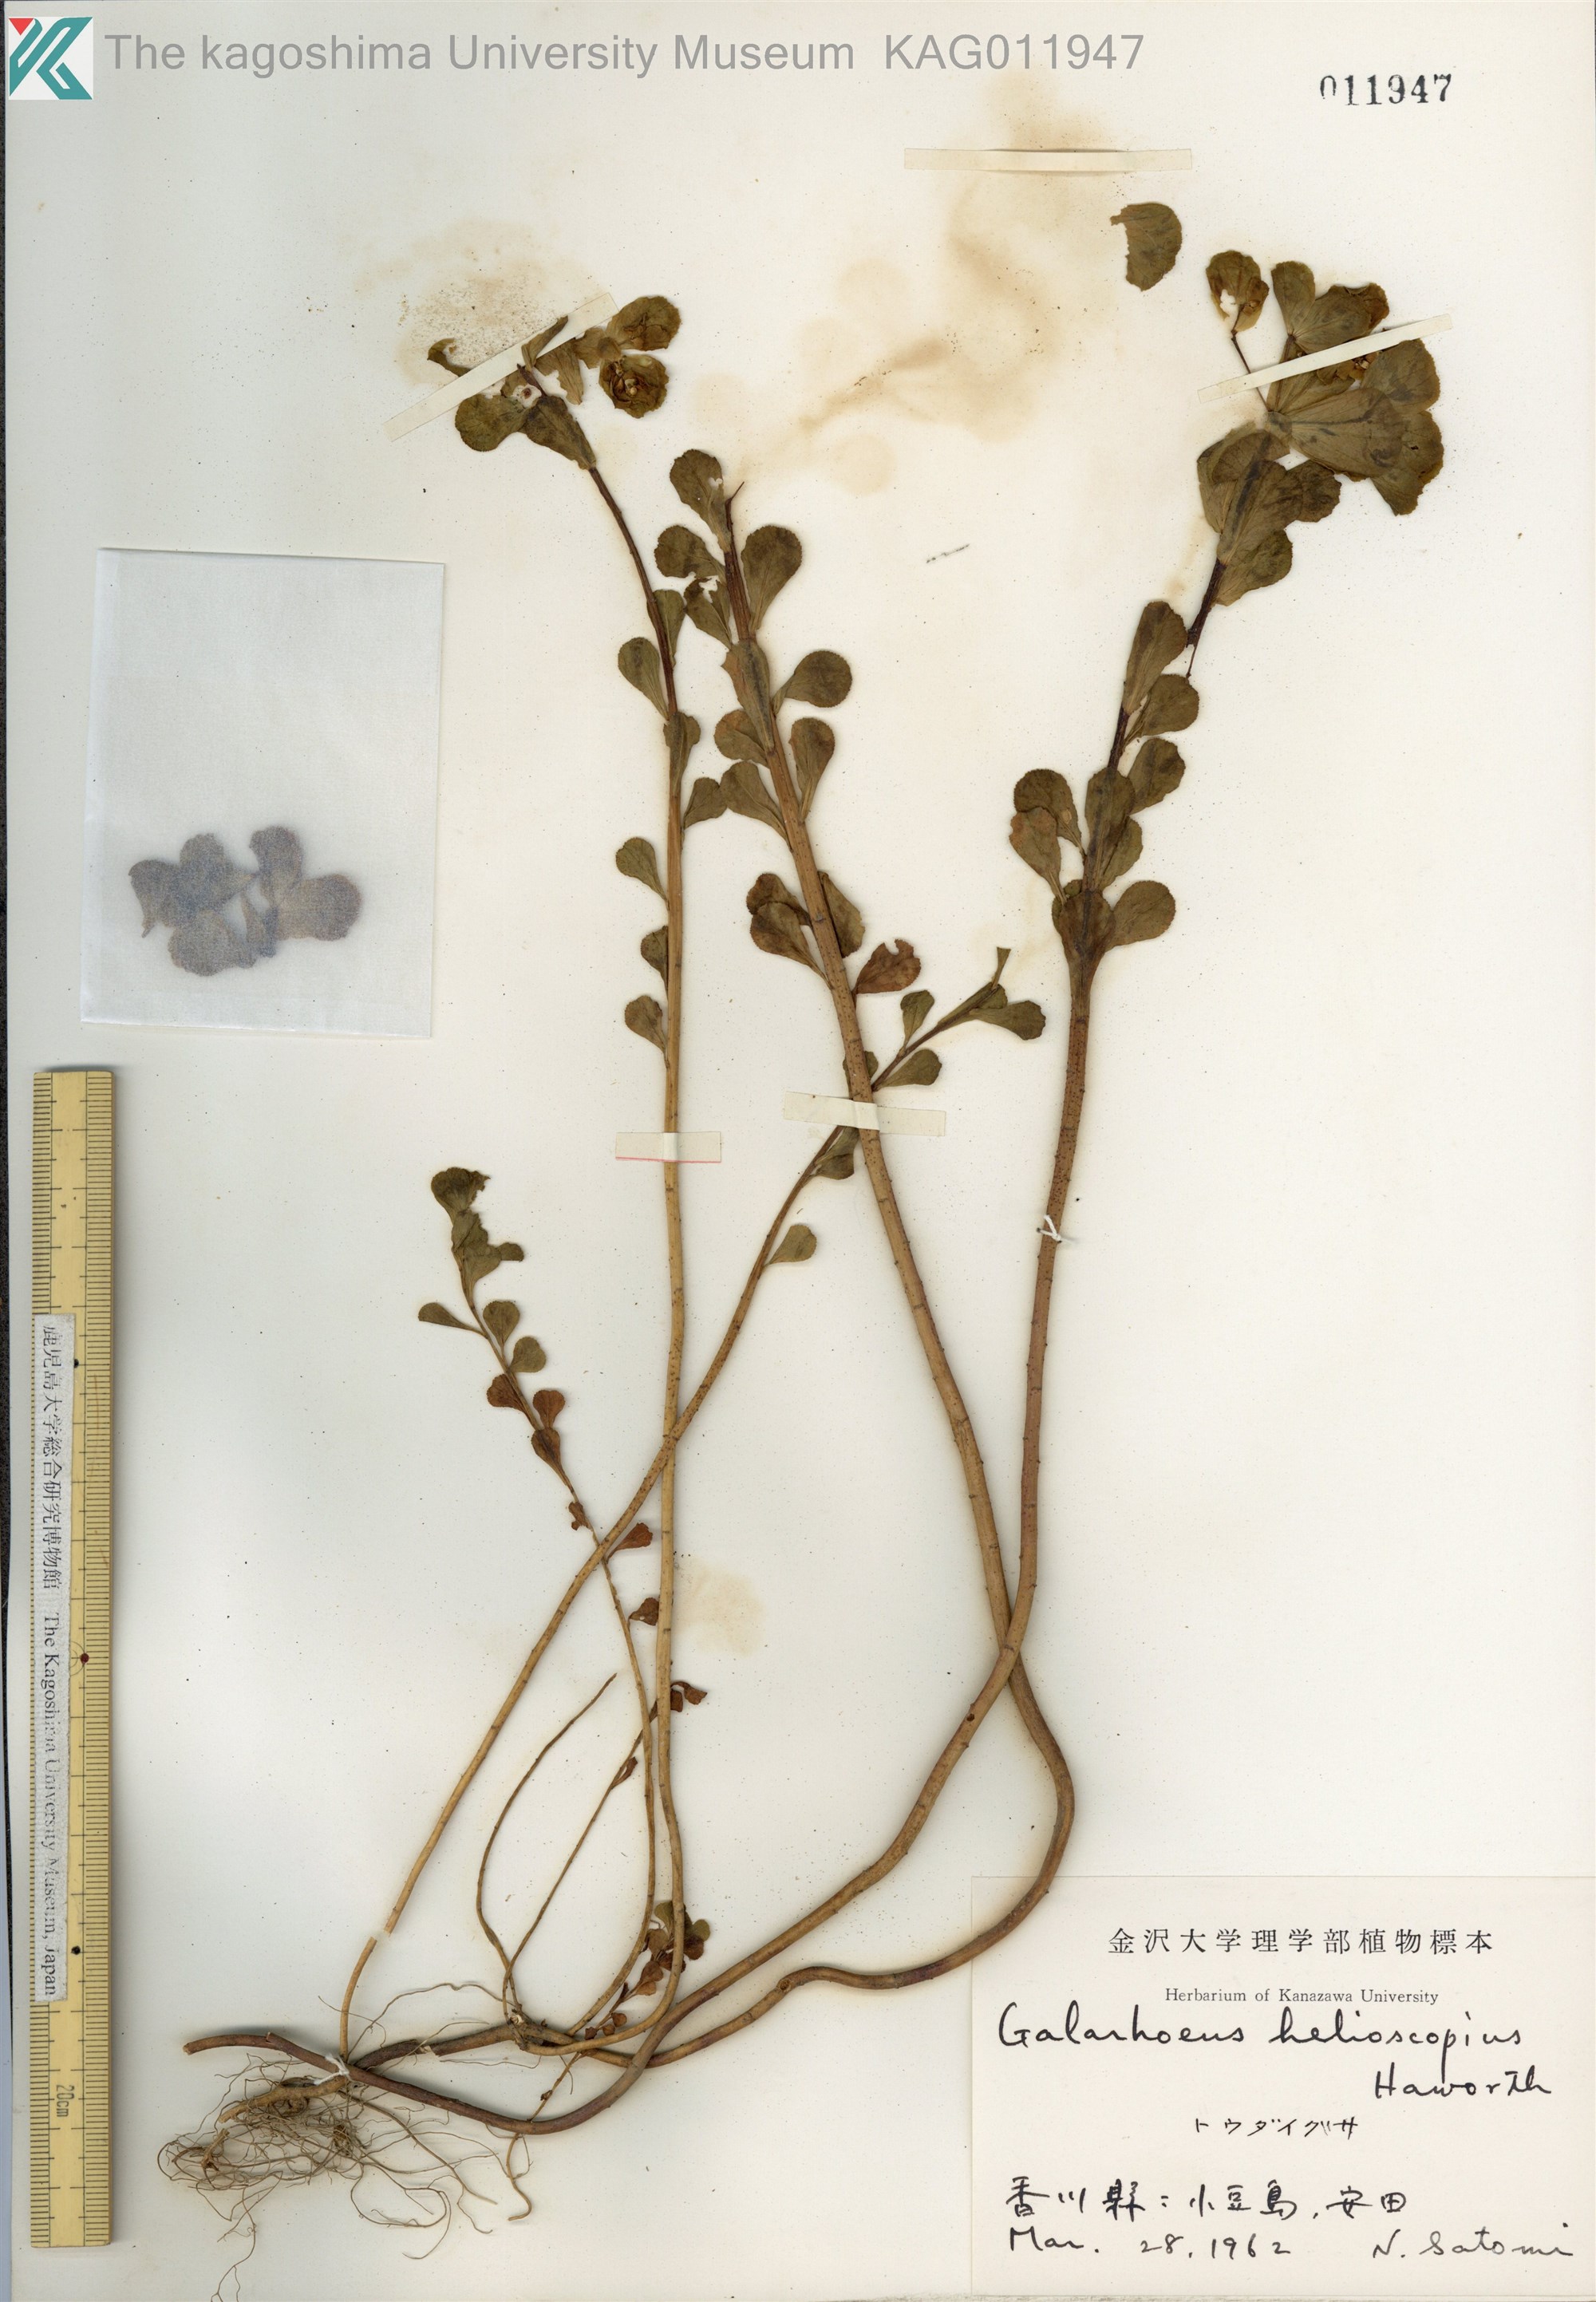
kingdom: Plantae
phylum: Tracheophyta
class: Magnoliopsida
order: Malpighiales
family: Euphorbiaceae
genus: Euphorbia
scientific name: Euphorbia helioscopia
